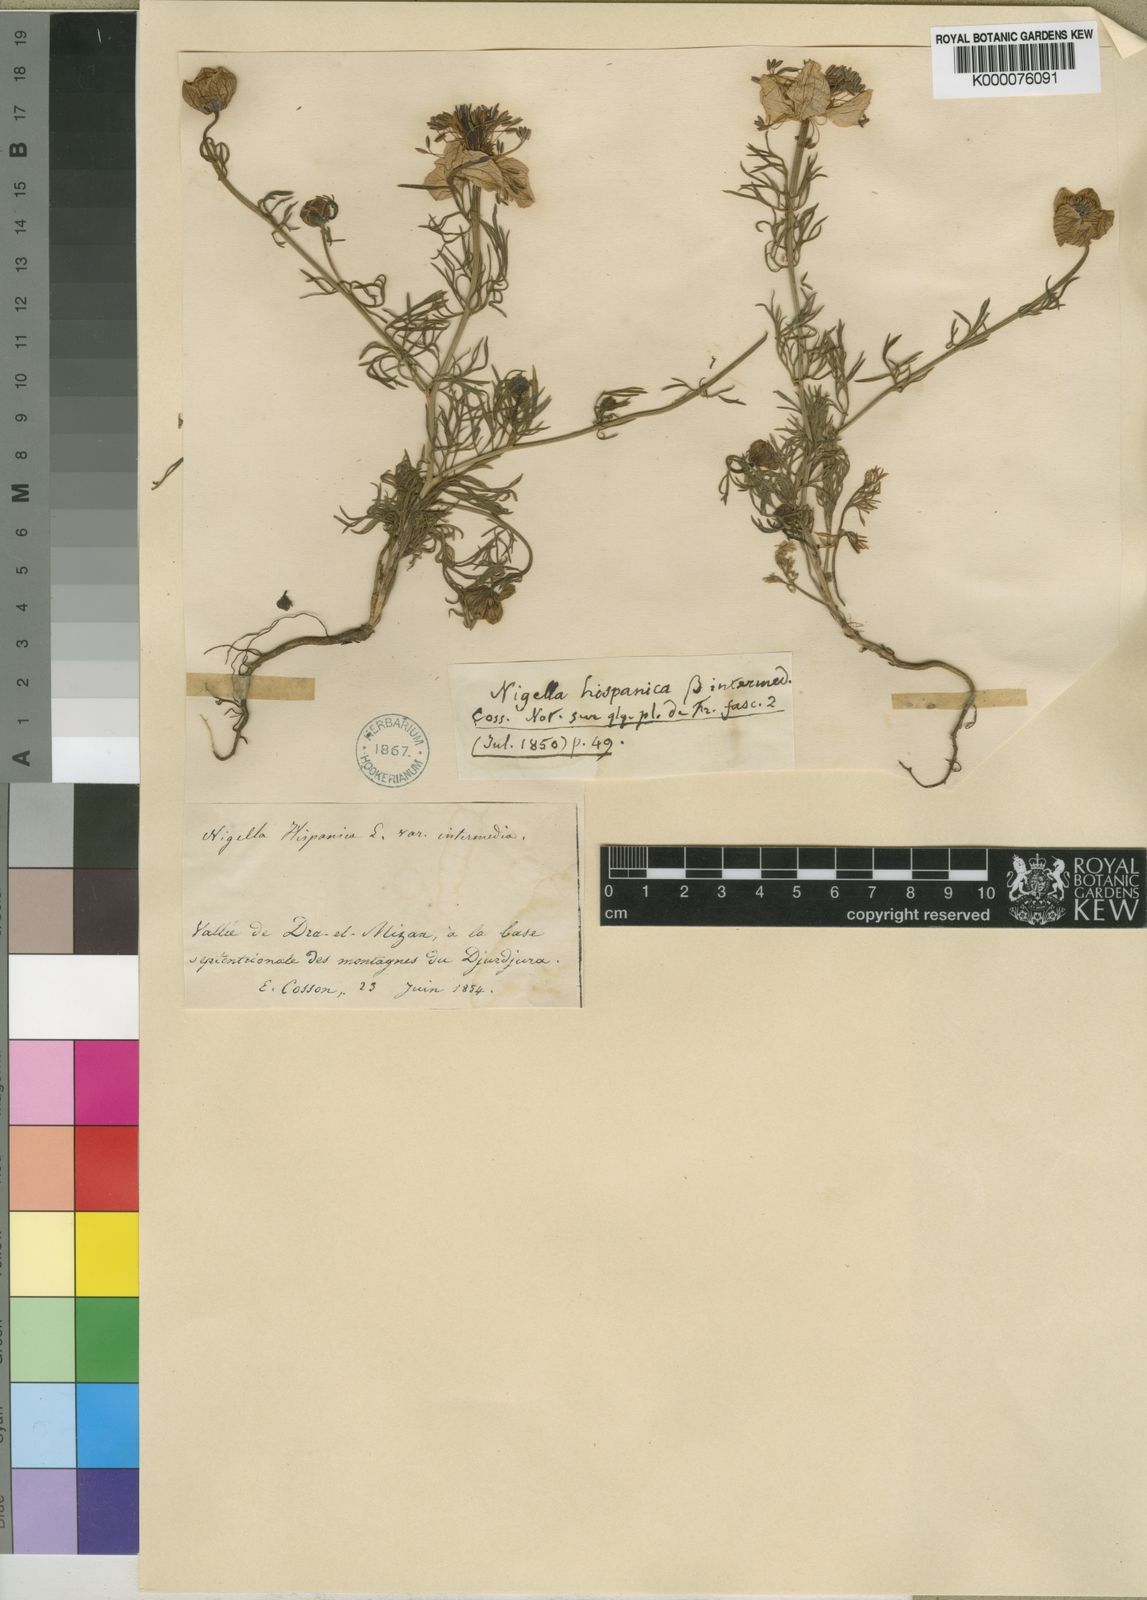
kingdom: Plantae
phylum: Tracheophyta
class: Magnoliopsida
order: Ranunculales
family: Ranunculaceae
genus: Nigella
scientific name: Nigella hispanica
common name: Fennel-flower
